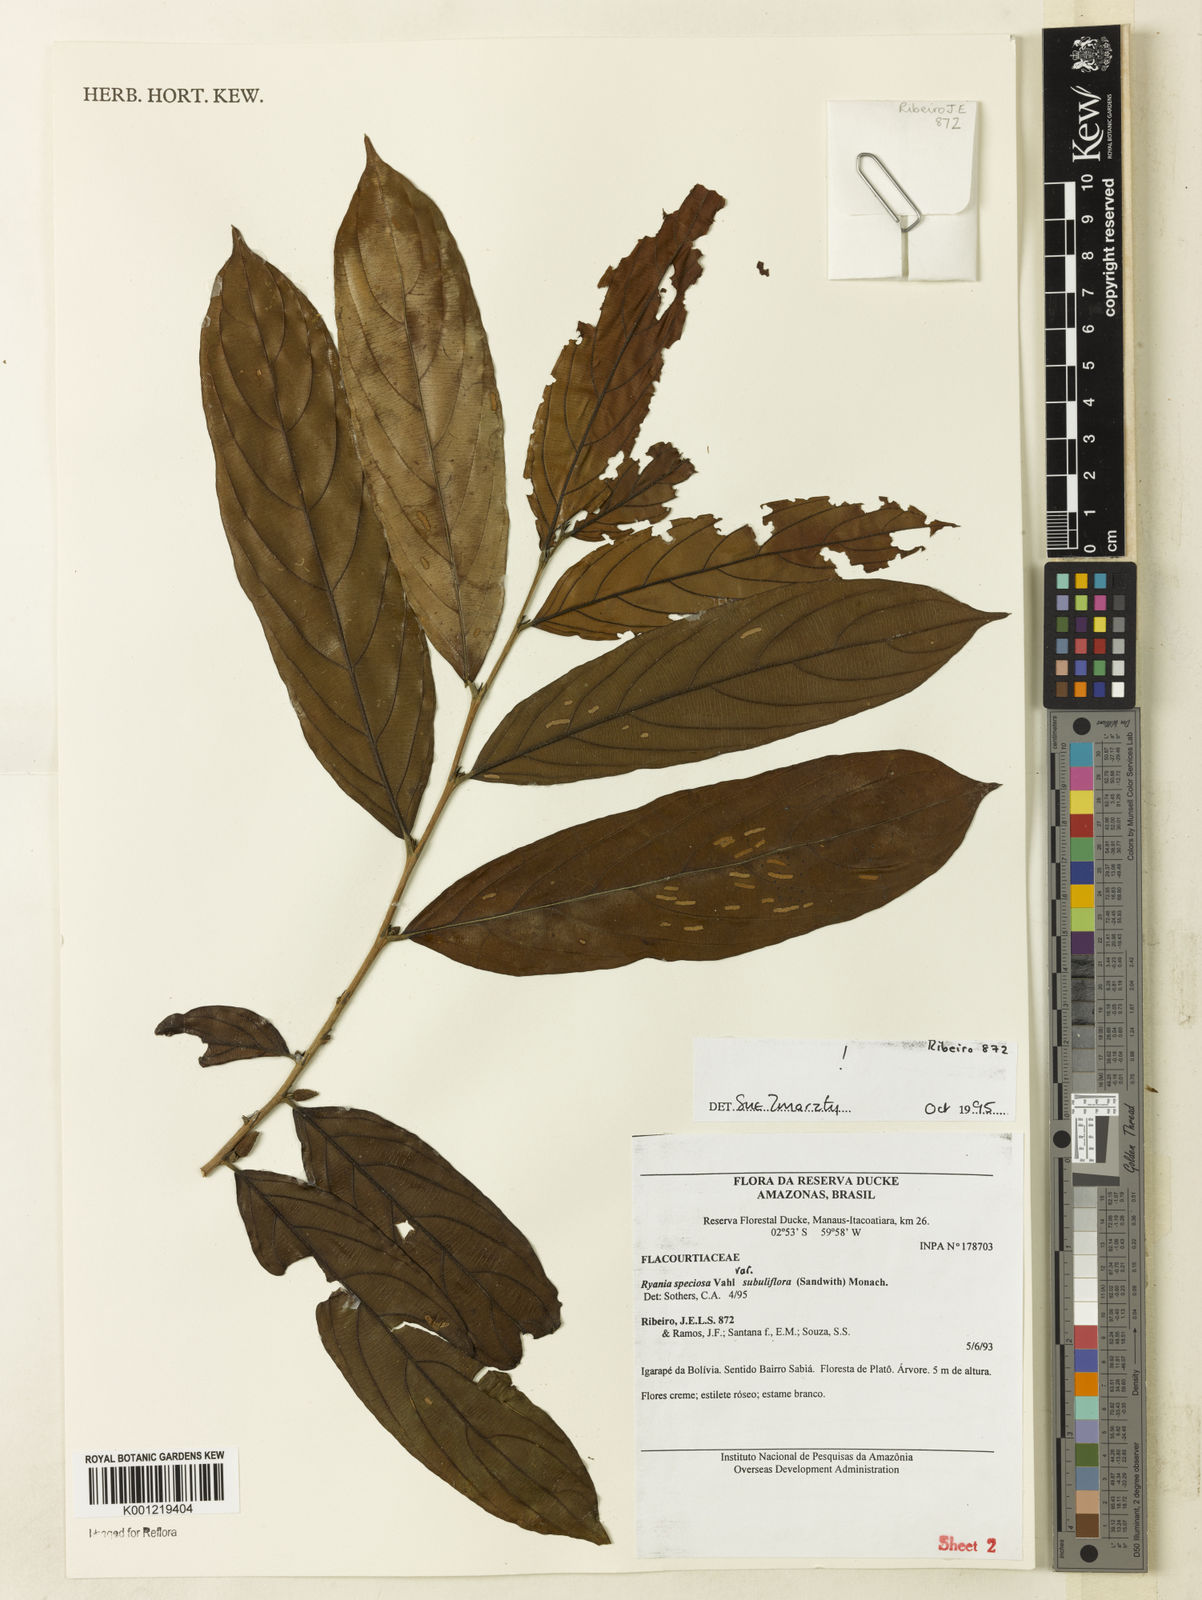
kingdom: Plantae
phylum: Tracheophyta
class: Magnoliopsida
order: Malpighiales
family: Salicaceae
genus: Ryania
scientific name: Ryania speciosa
